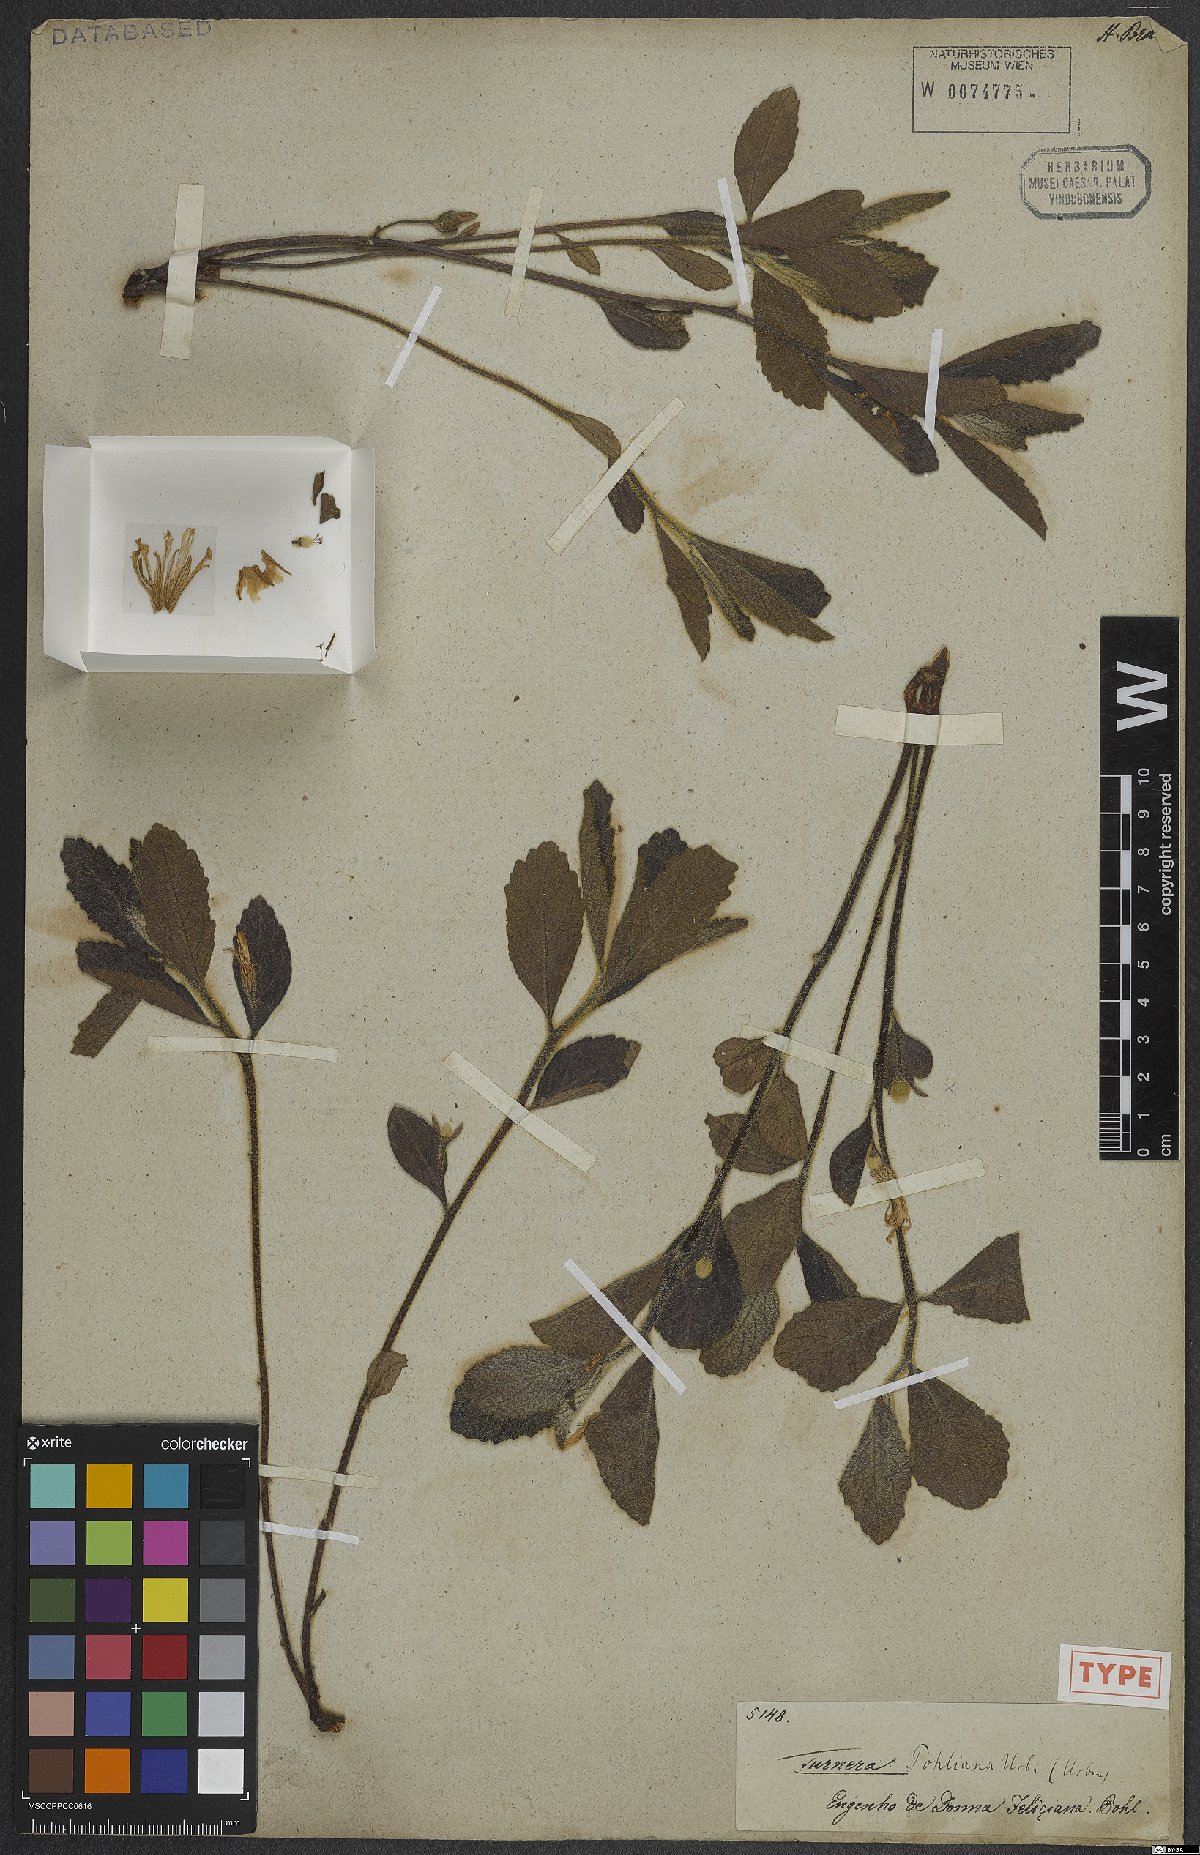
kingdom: Plantae
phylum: Tracheophyta
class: Magnoliopsida
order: Malpighiales
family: Turneraceae
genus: Turnera
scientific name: Turnera pohliana
